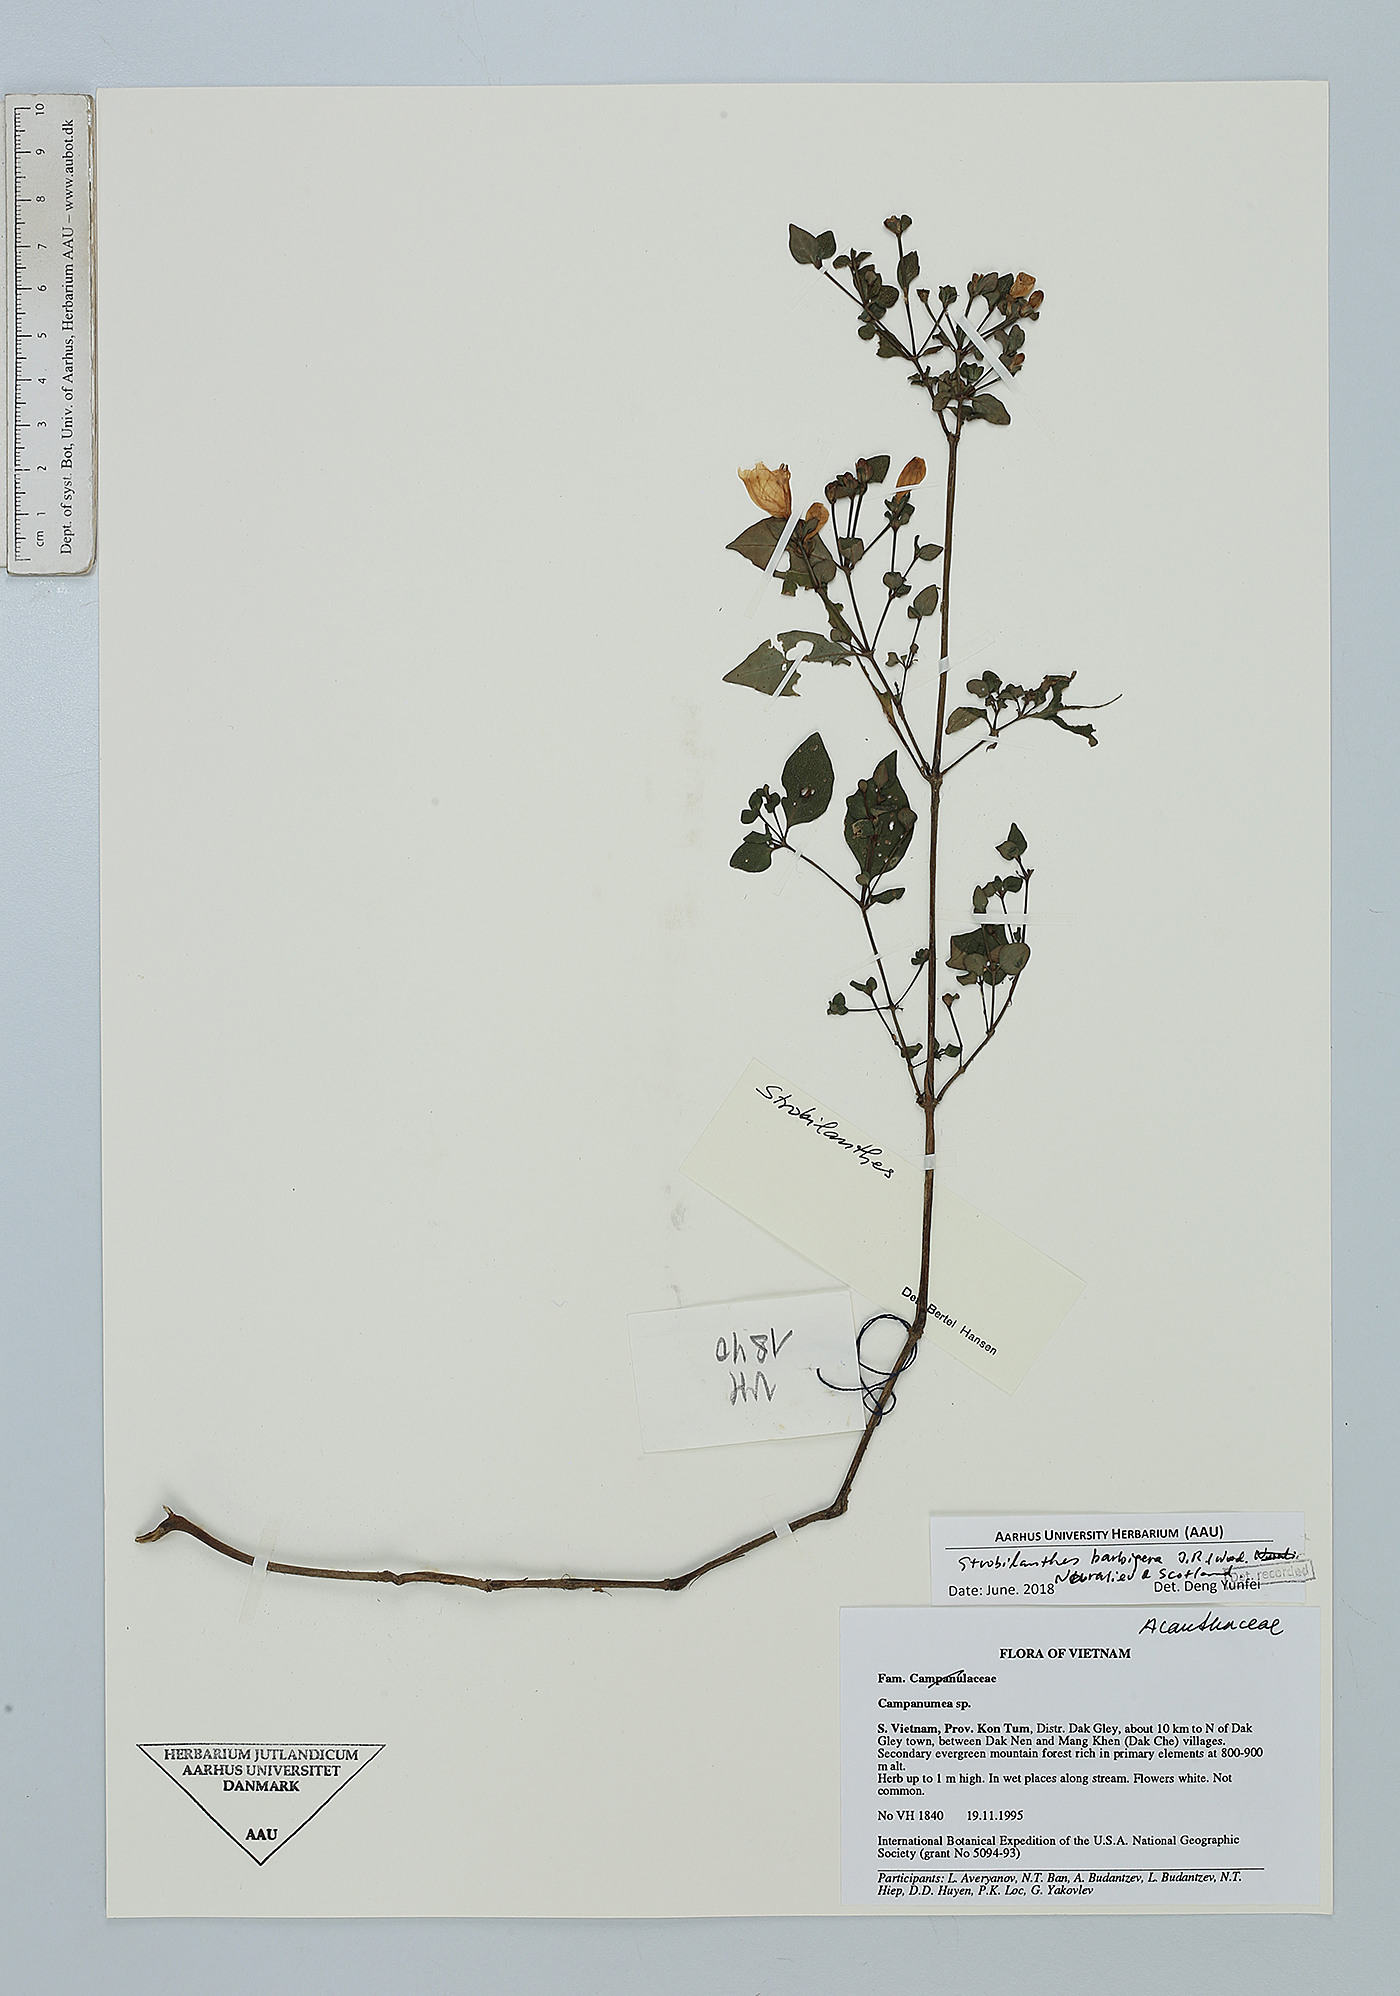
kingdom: Plantae
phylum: Tracheophyta
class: Magnoliopsida
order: Lamiales
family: Acanthaceae
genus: Strobilanthes
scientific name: Strobilanthes barbigera
